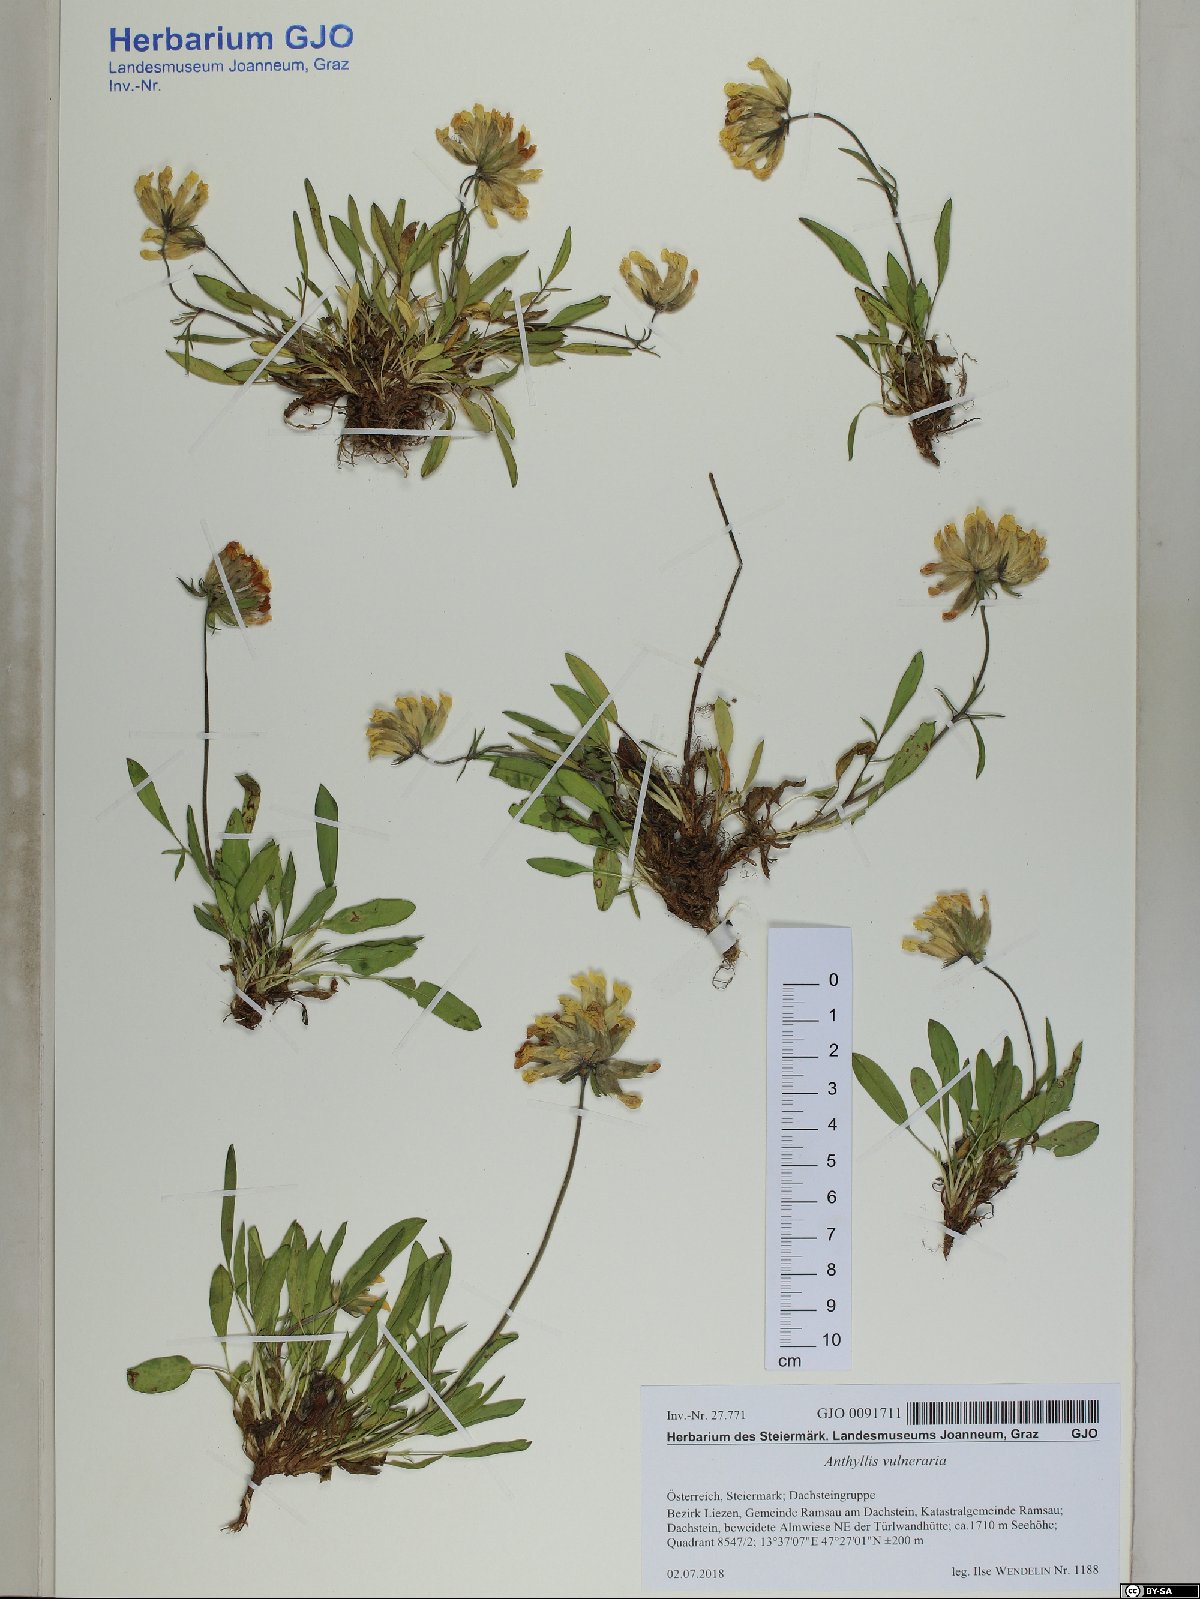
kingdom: Plantae
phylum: Tracheophyta
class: Magnoliopsida
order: Fabales
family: Fabaceae
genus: Anthyllis
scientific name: Anthyllis vulneraria
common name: Kidney vetch
